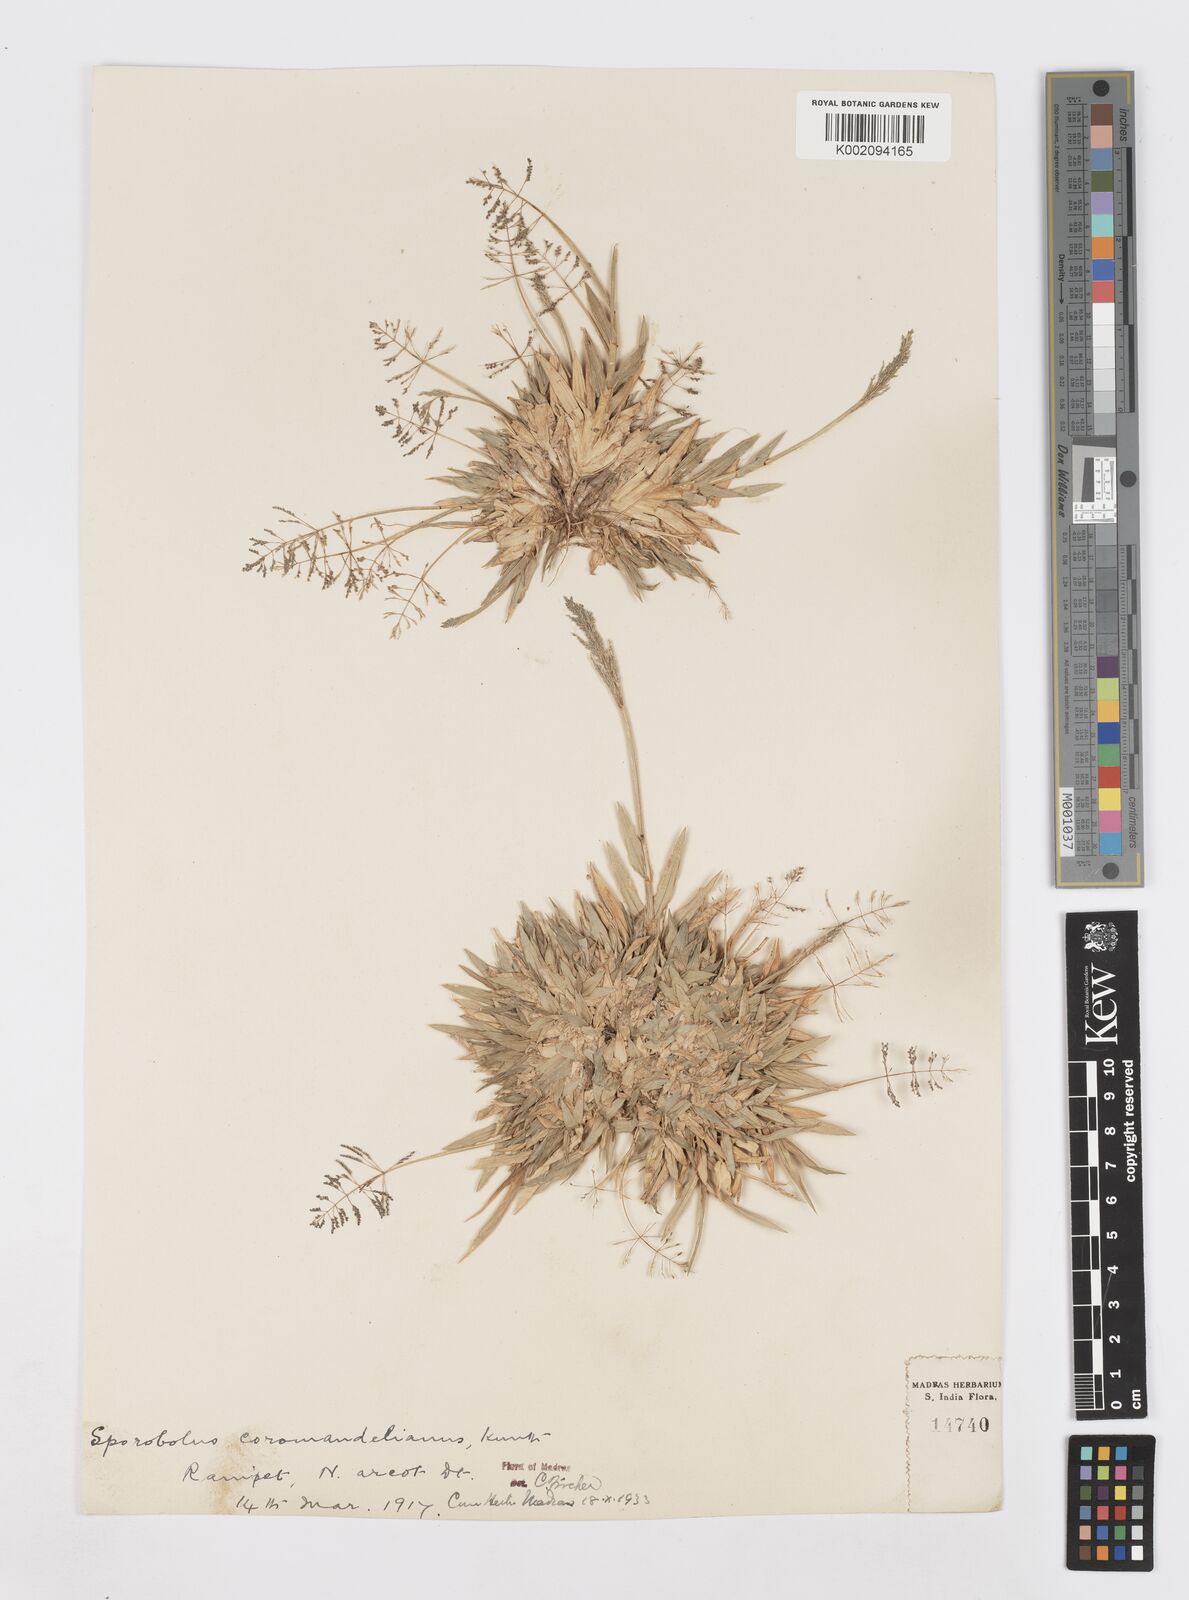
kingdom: Plantae
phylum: Tracheophyta
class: Liliopsida
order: Poales
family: Poaceae
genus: Sporobolus
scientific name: Sporobolus coromandelianus
